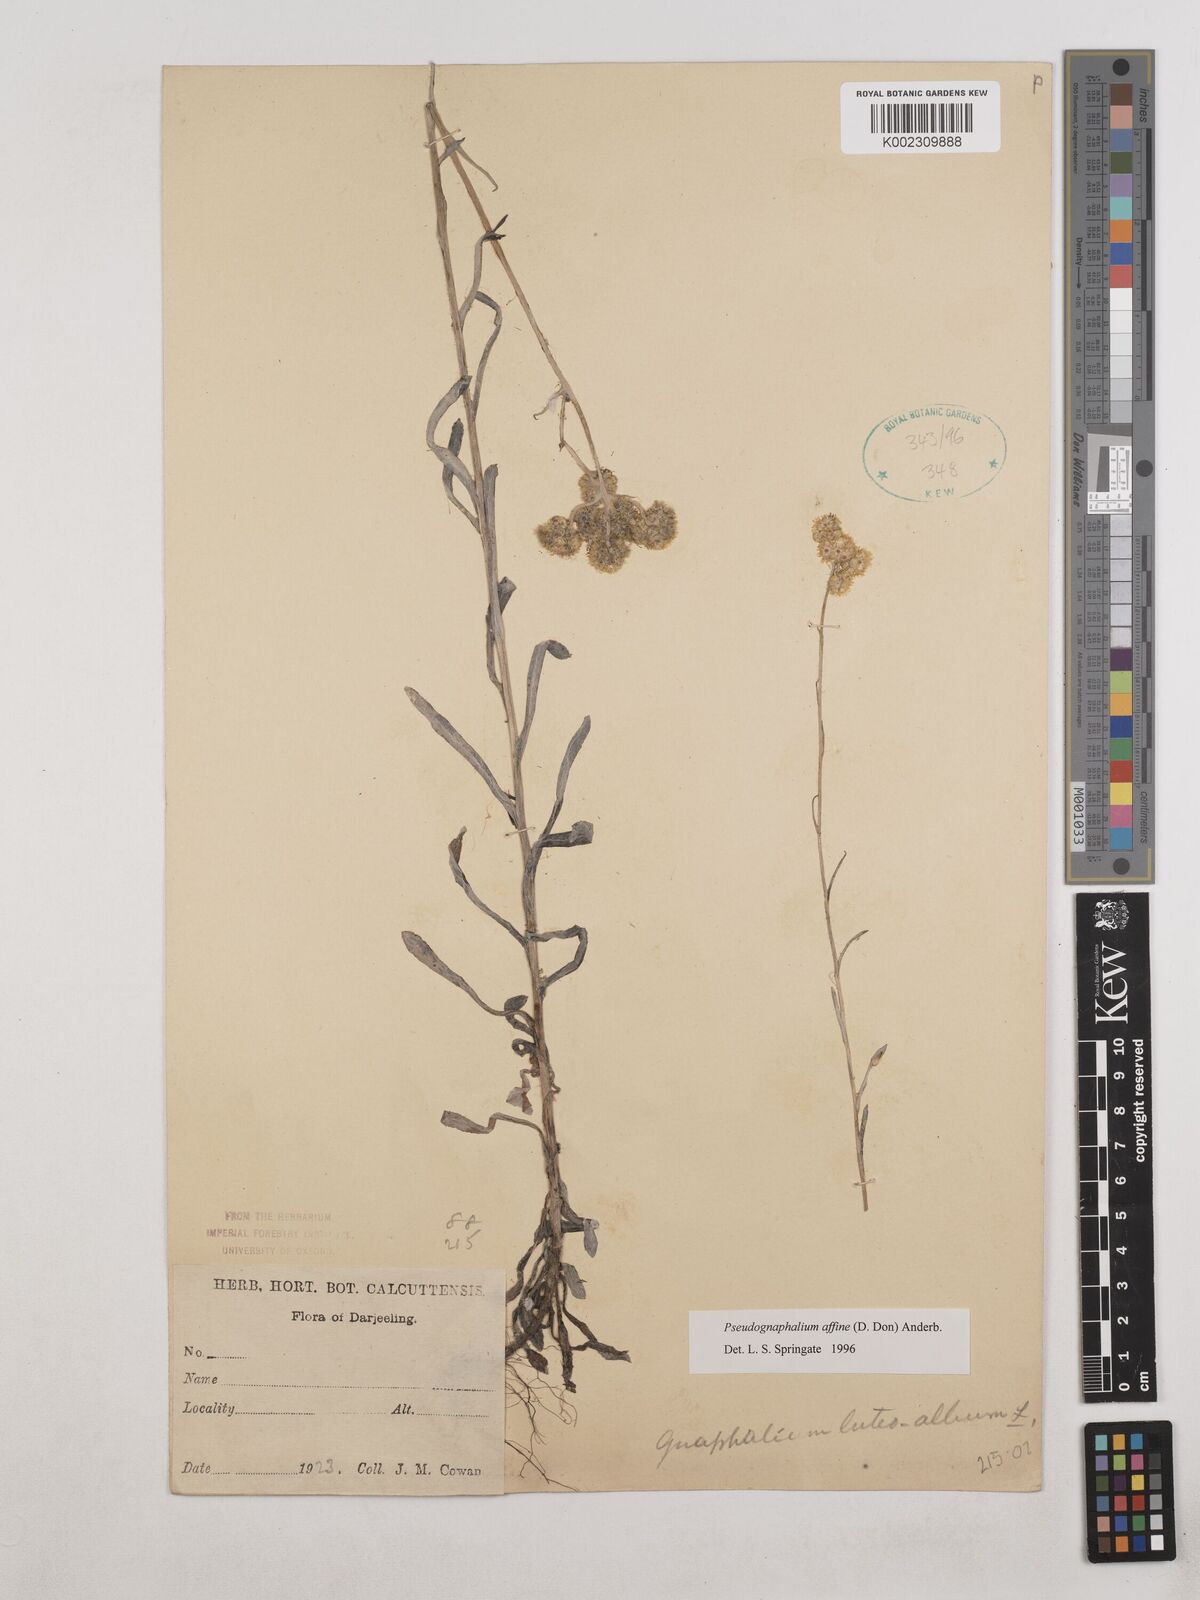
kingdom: Plantae
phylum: Tracheophyta
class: Magnoliopsida
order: Asterales
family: Asteraceae
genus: Pseudognaphalium
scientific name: Pseudognaphalium affine
